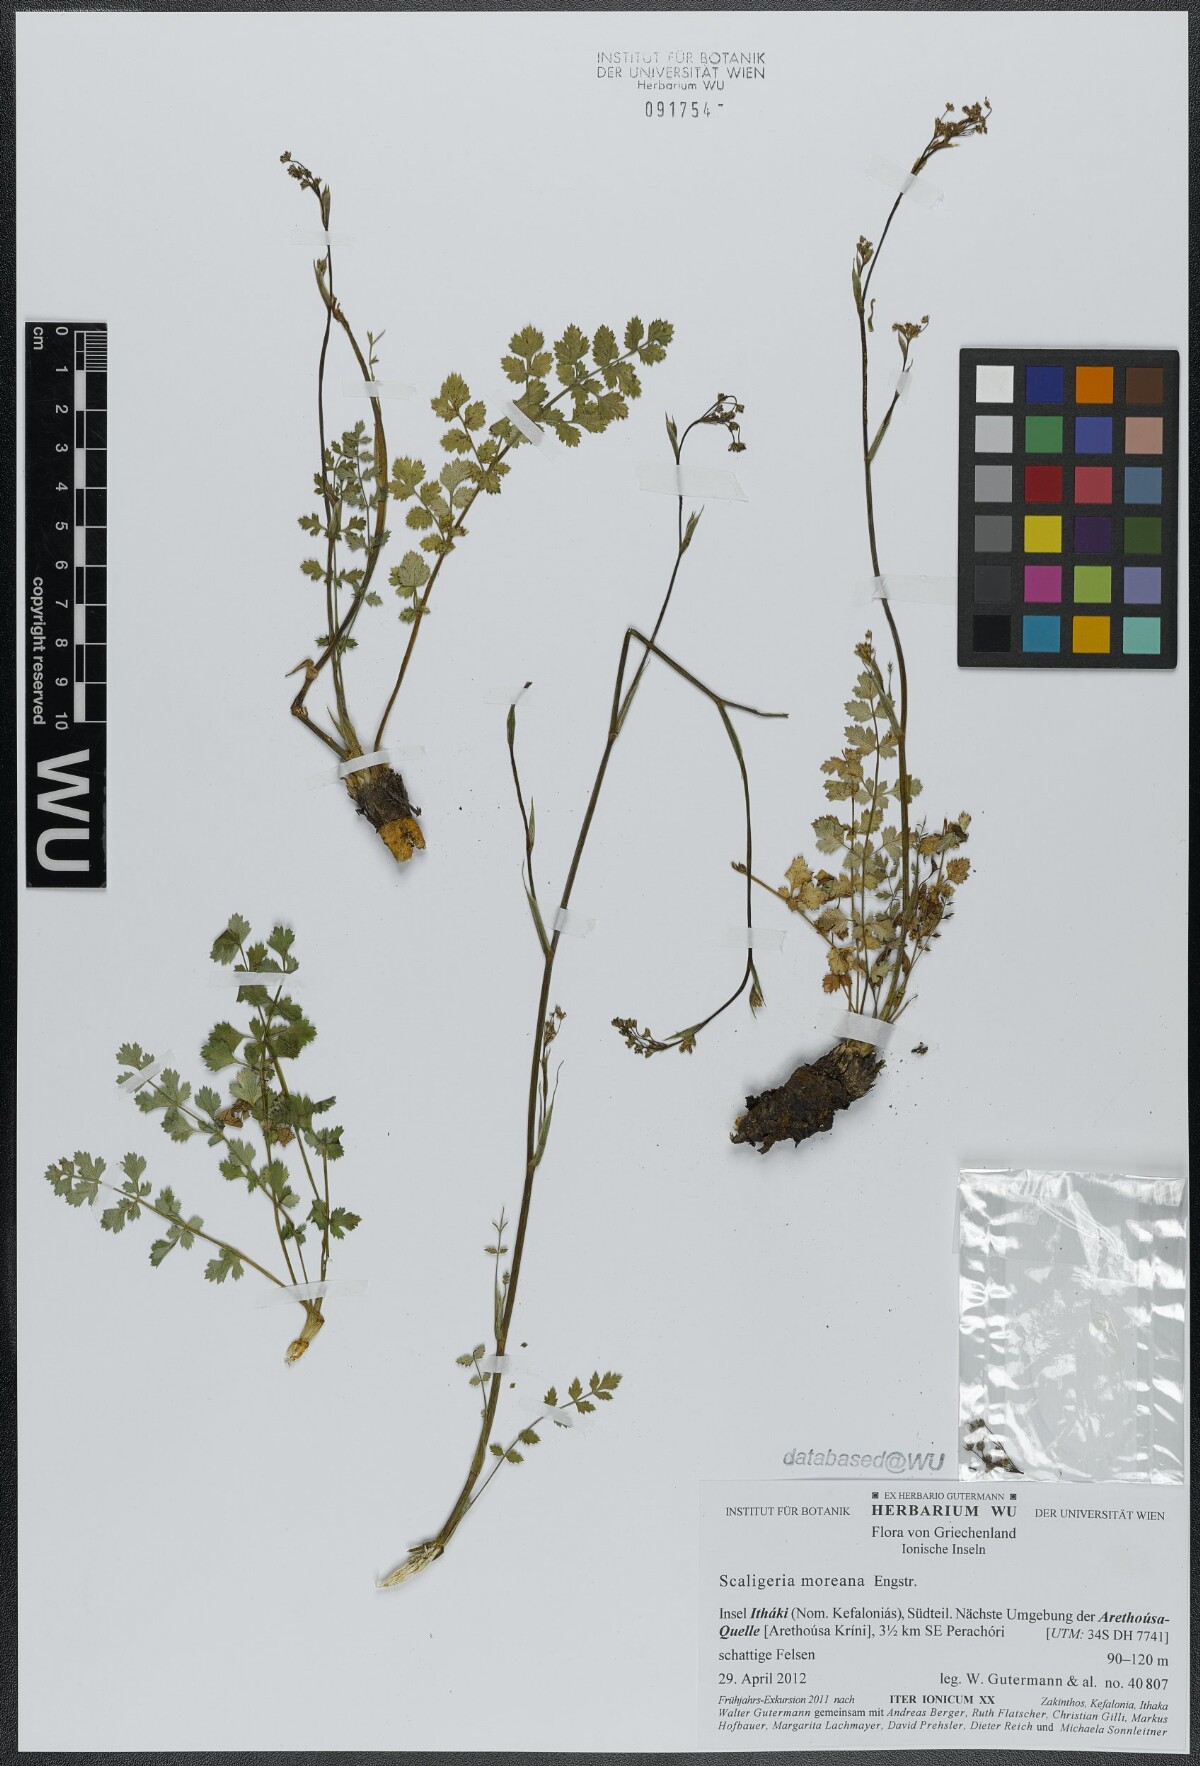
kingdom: Plantae
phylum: Tracheophyta
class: Magnoliopsida
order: Apiales
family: Apiaceae
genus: Scaligeria
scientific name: Scaligeria moreana
